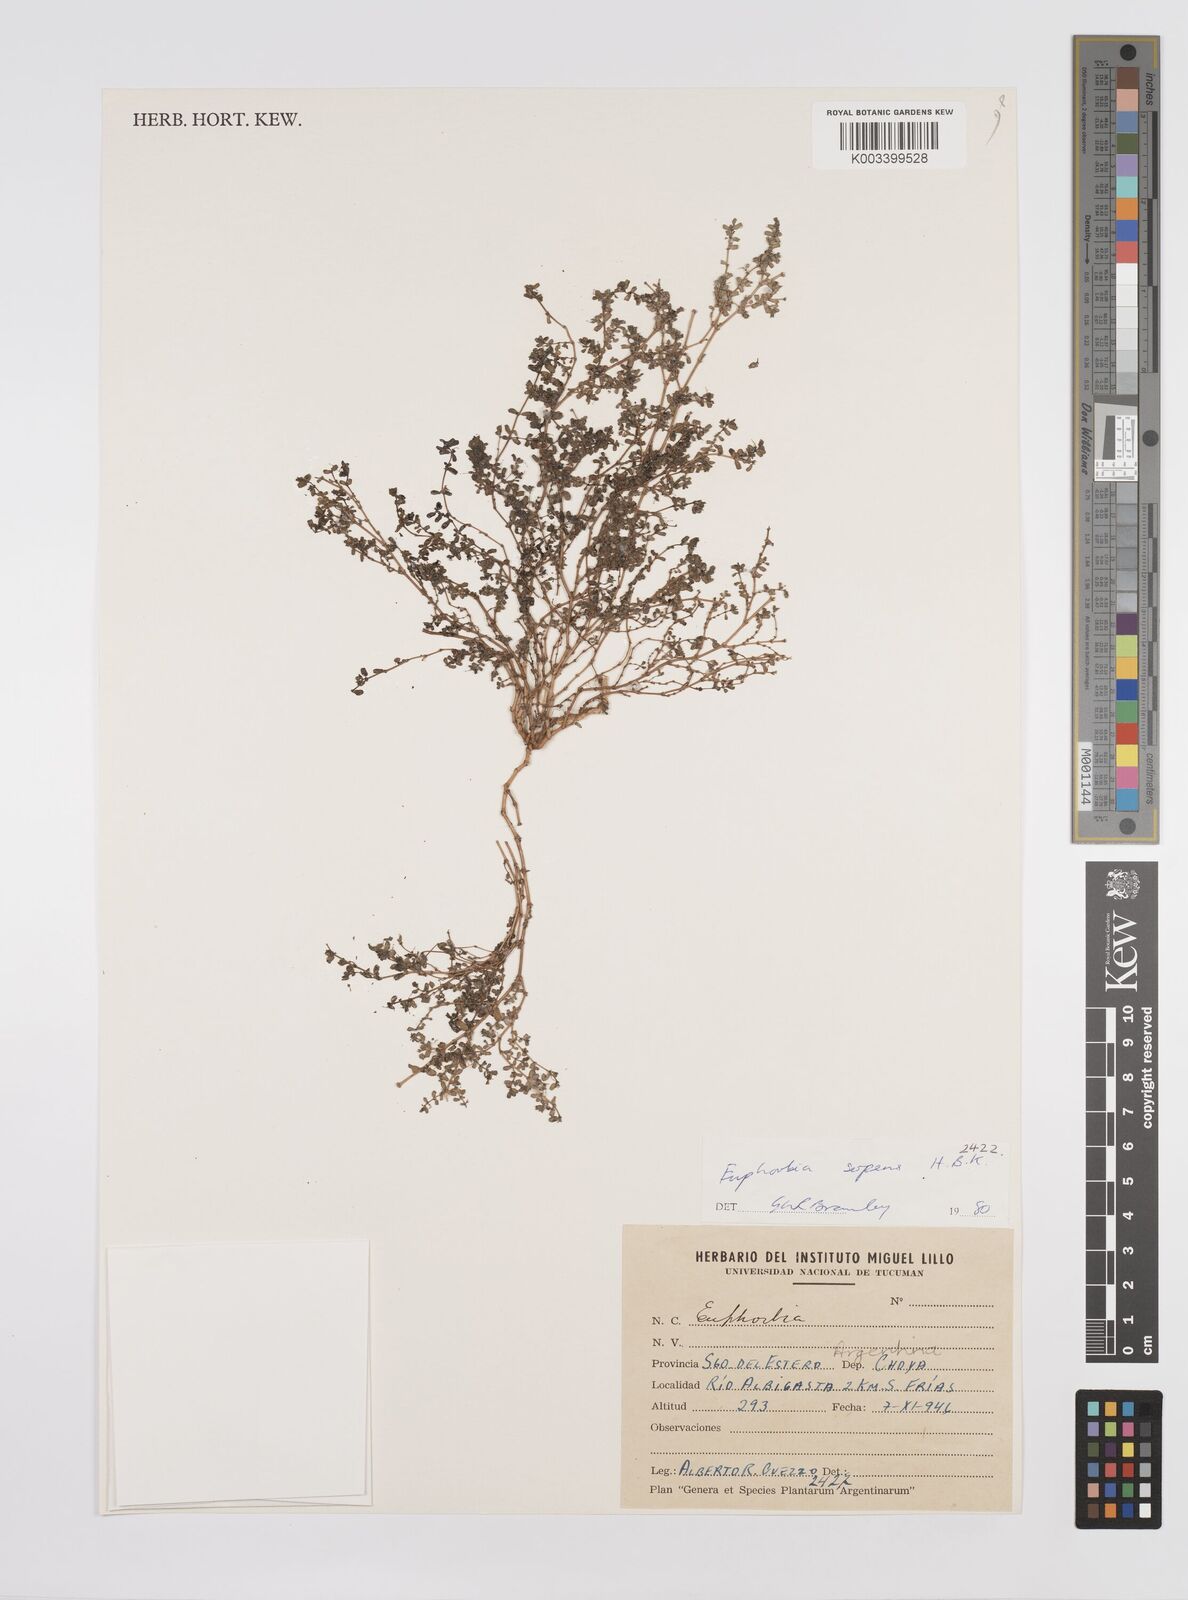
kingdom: Plantae
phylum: Tracheophyta
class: Magnoliopsida
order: Malpighiales
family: Euphorbiaceae
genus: Euphorbia
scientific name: Euphorbia
